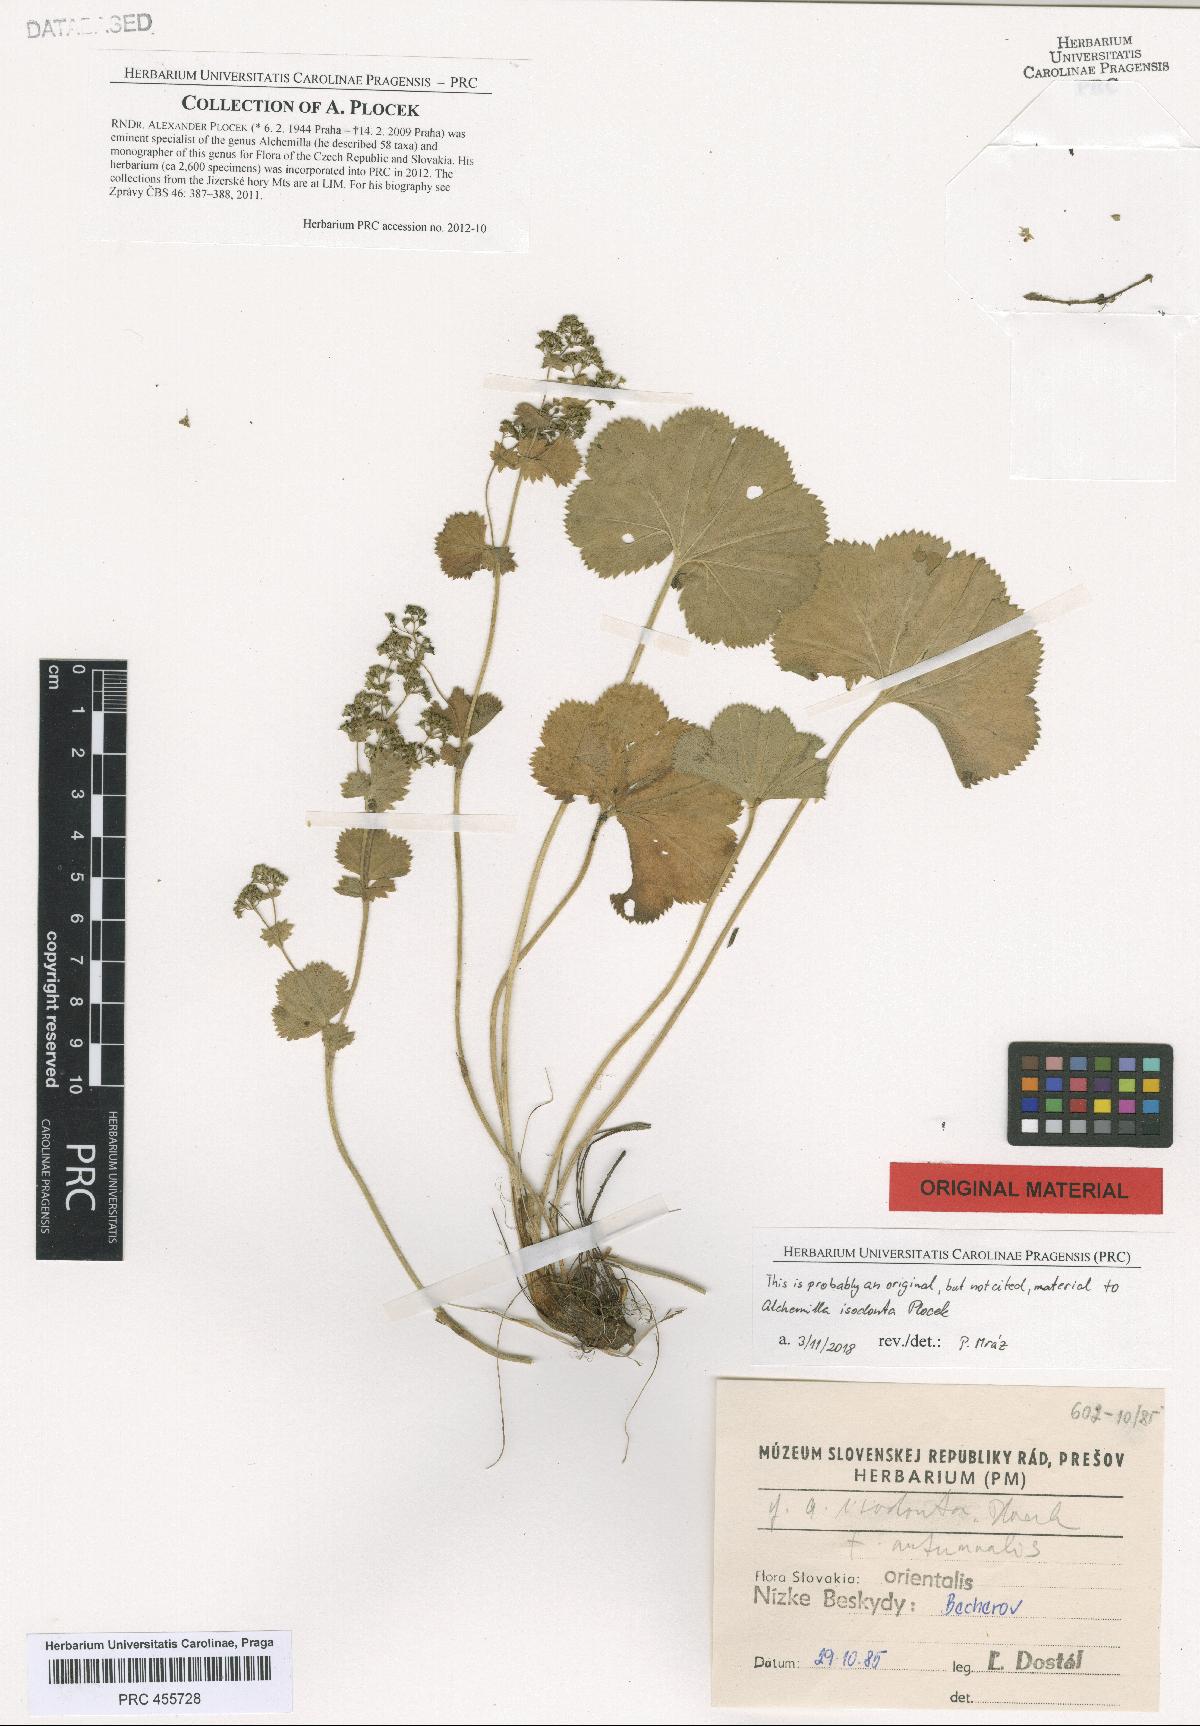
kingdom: Plantae
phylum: Tracheophyta
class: Magnoliopsida
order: Rosales
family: Rosaceae
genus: Alchemilla
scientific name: Alchemilla isodonta
